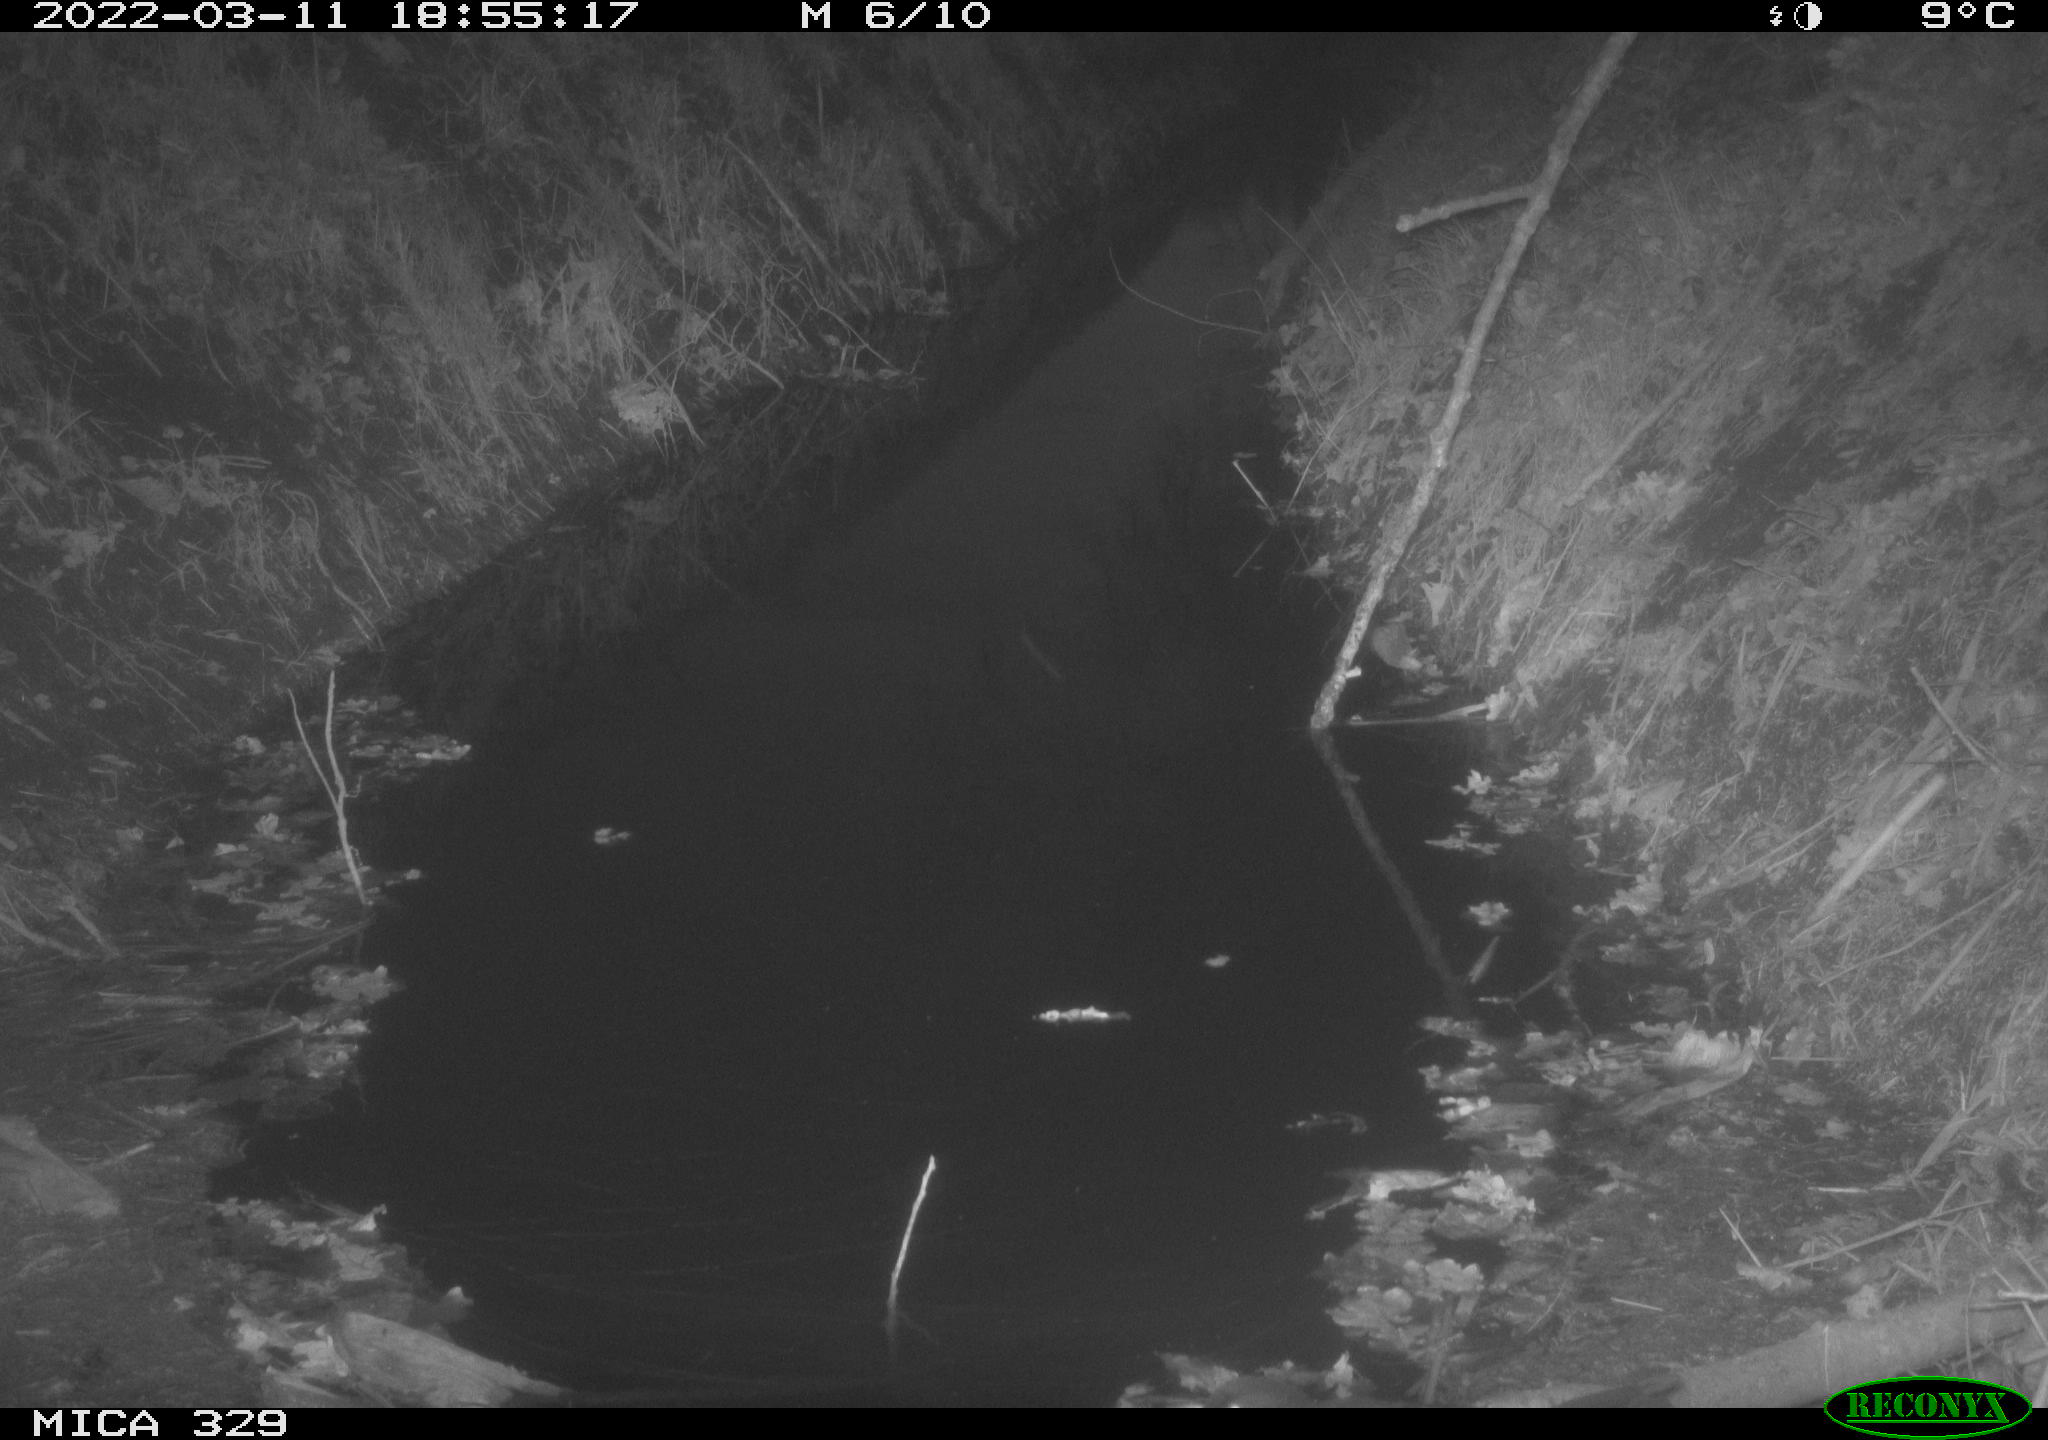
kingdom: Animalia
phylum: Chordata
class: Aves
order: Passeriformes
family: Turdidae
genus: Turdus
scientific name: Turdus merula
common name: Common blackbird
